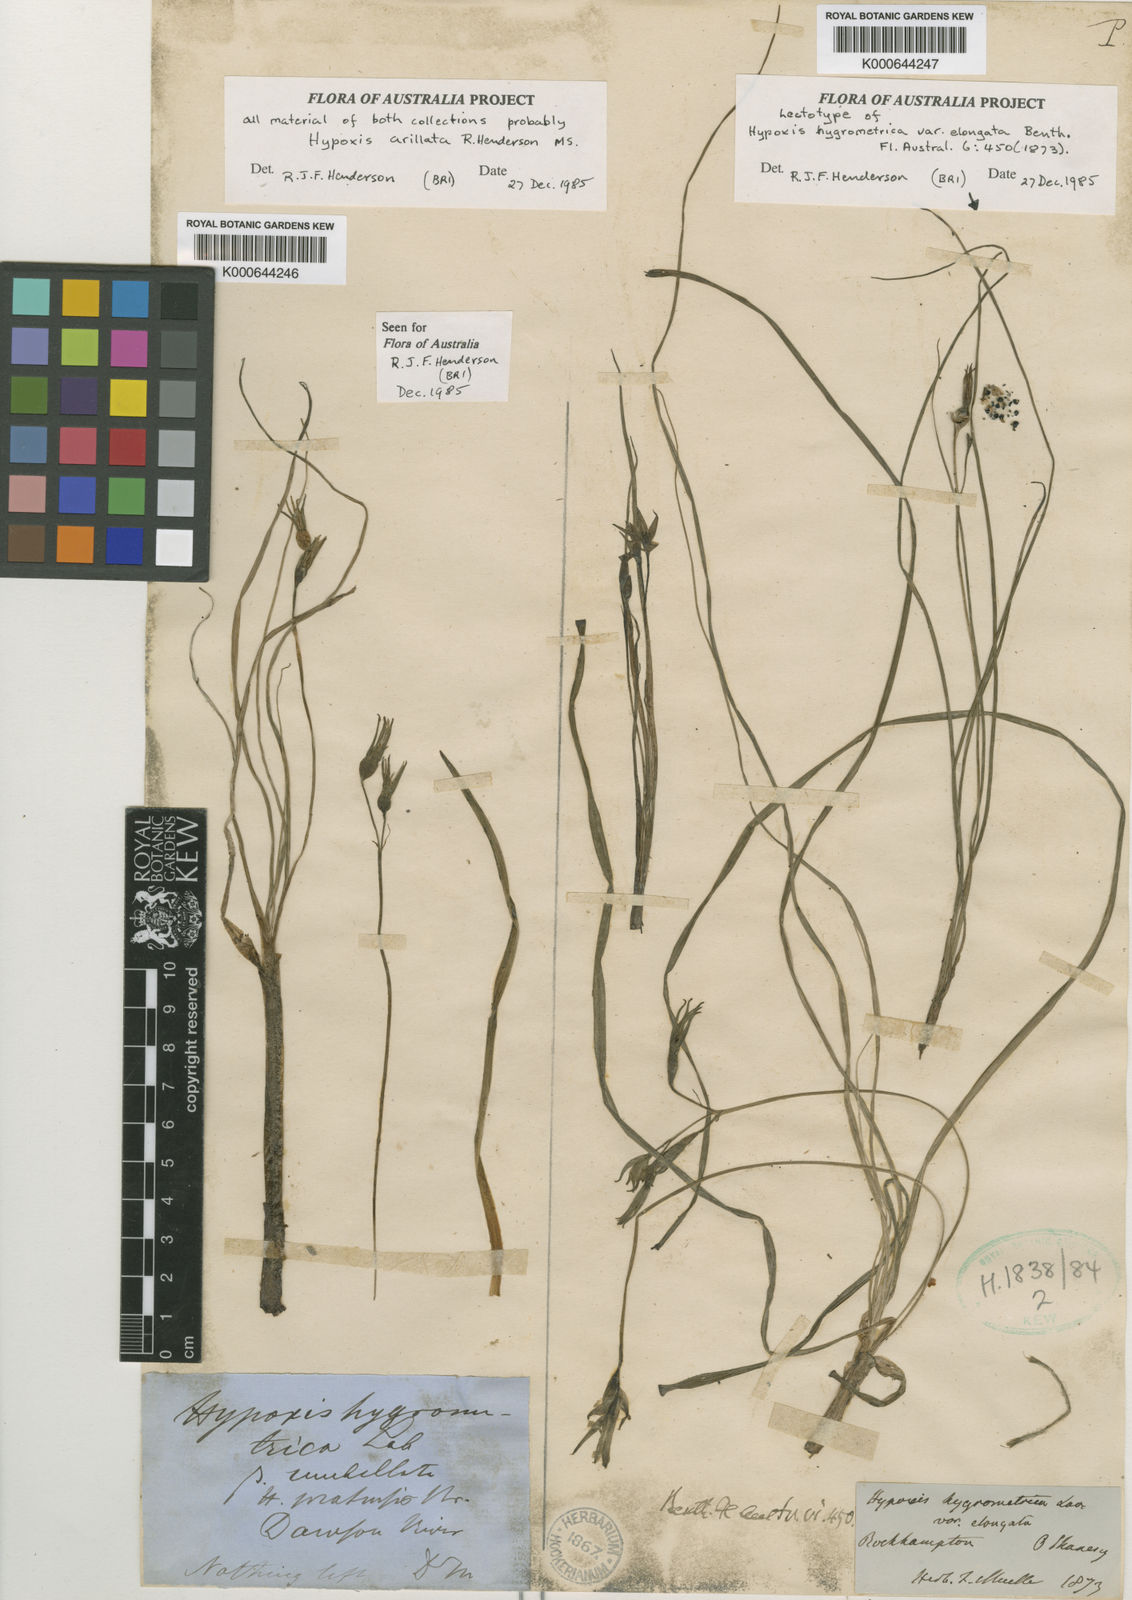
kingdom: Plantae
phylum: Tracheophyta
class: Liliopsida
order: Asparagales
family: Hypoxidaceae
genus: Hypoxis
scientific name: Hypoxis
